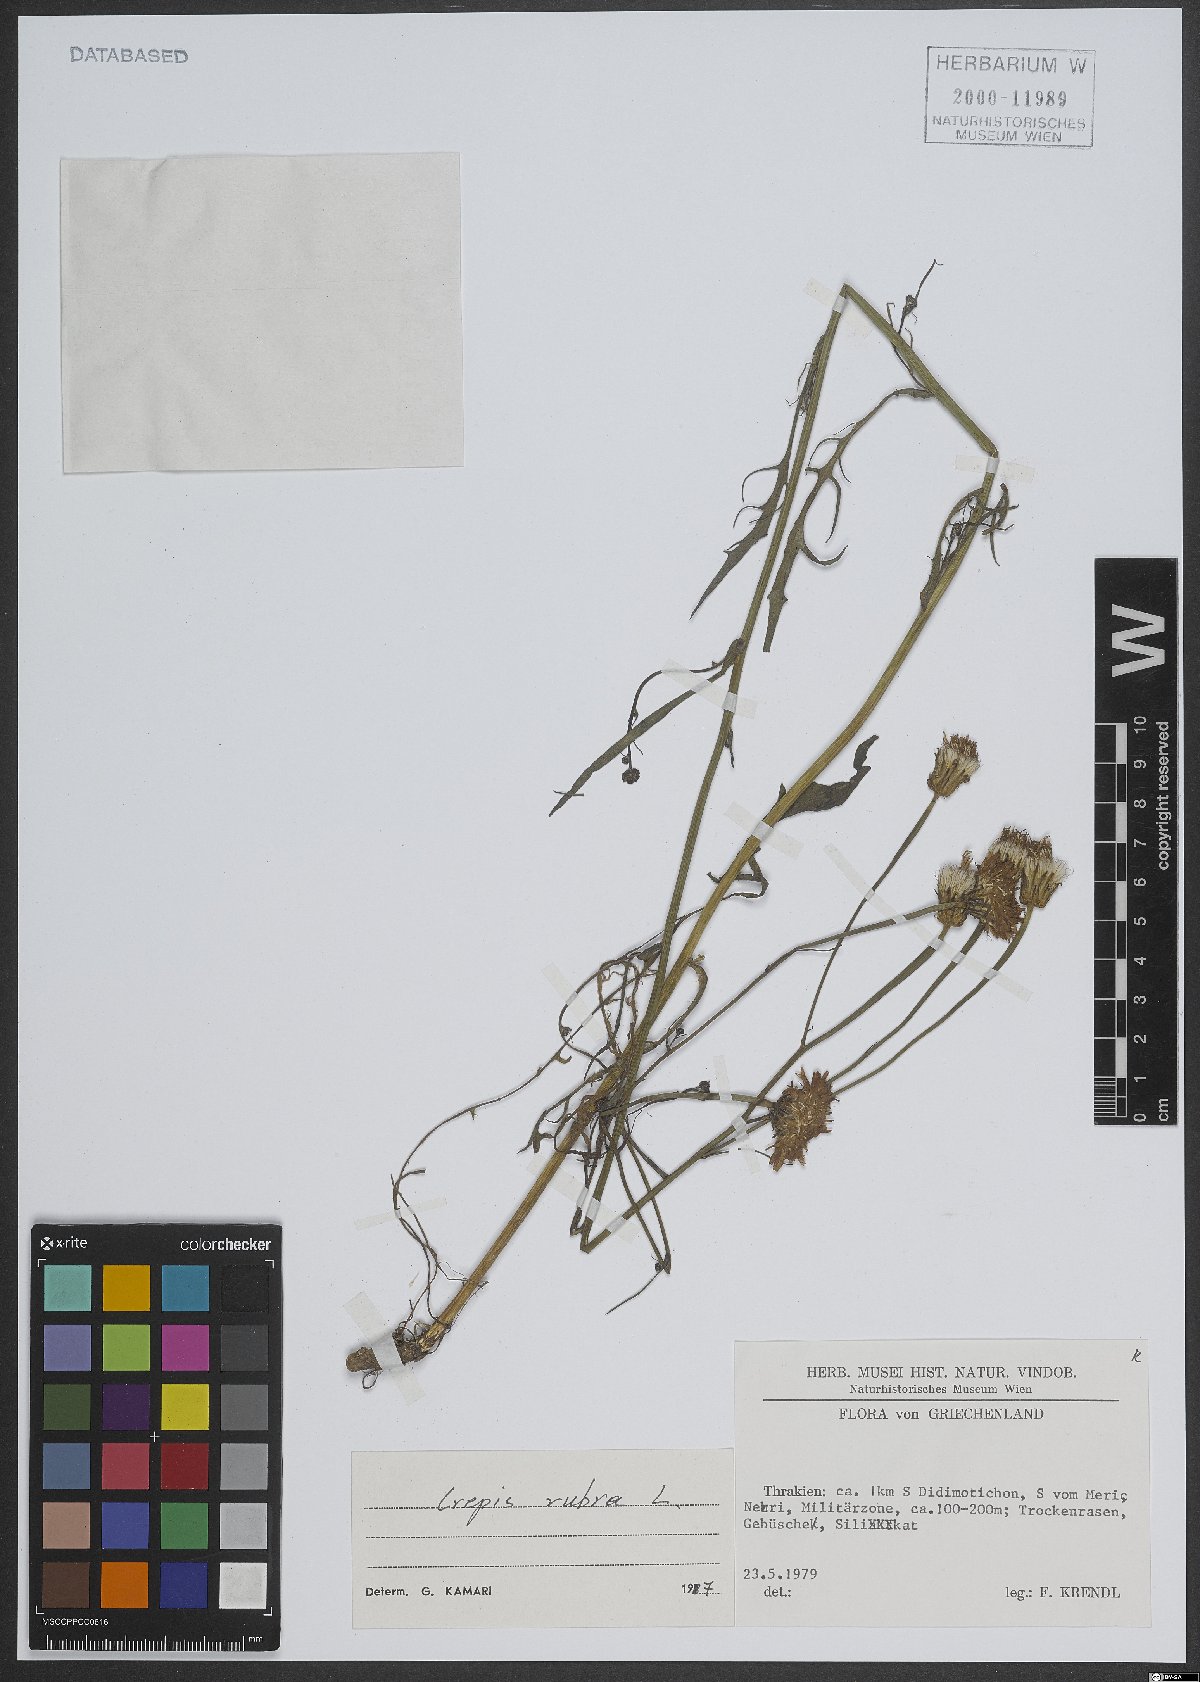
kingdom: Plantae
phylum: Tracheophyta
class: Magnoliopsida
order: Asterales
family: Asteraceae
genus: Crepis
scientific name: Crepis rubra
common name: Pink hawk's-beard
